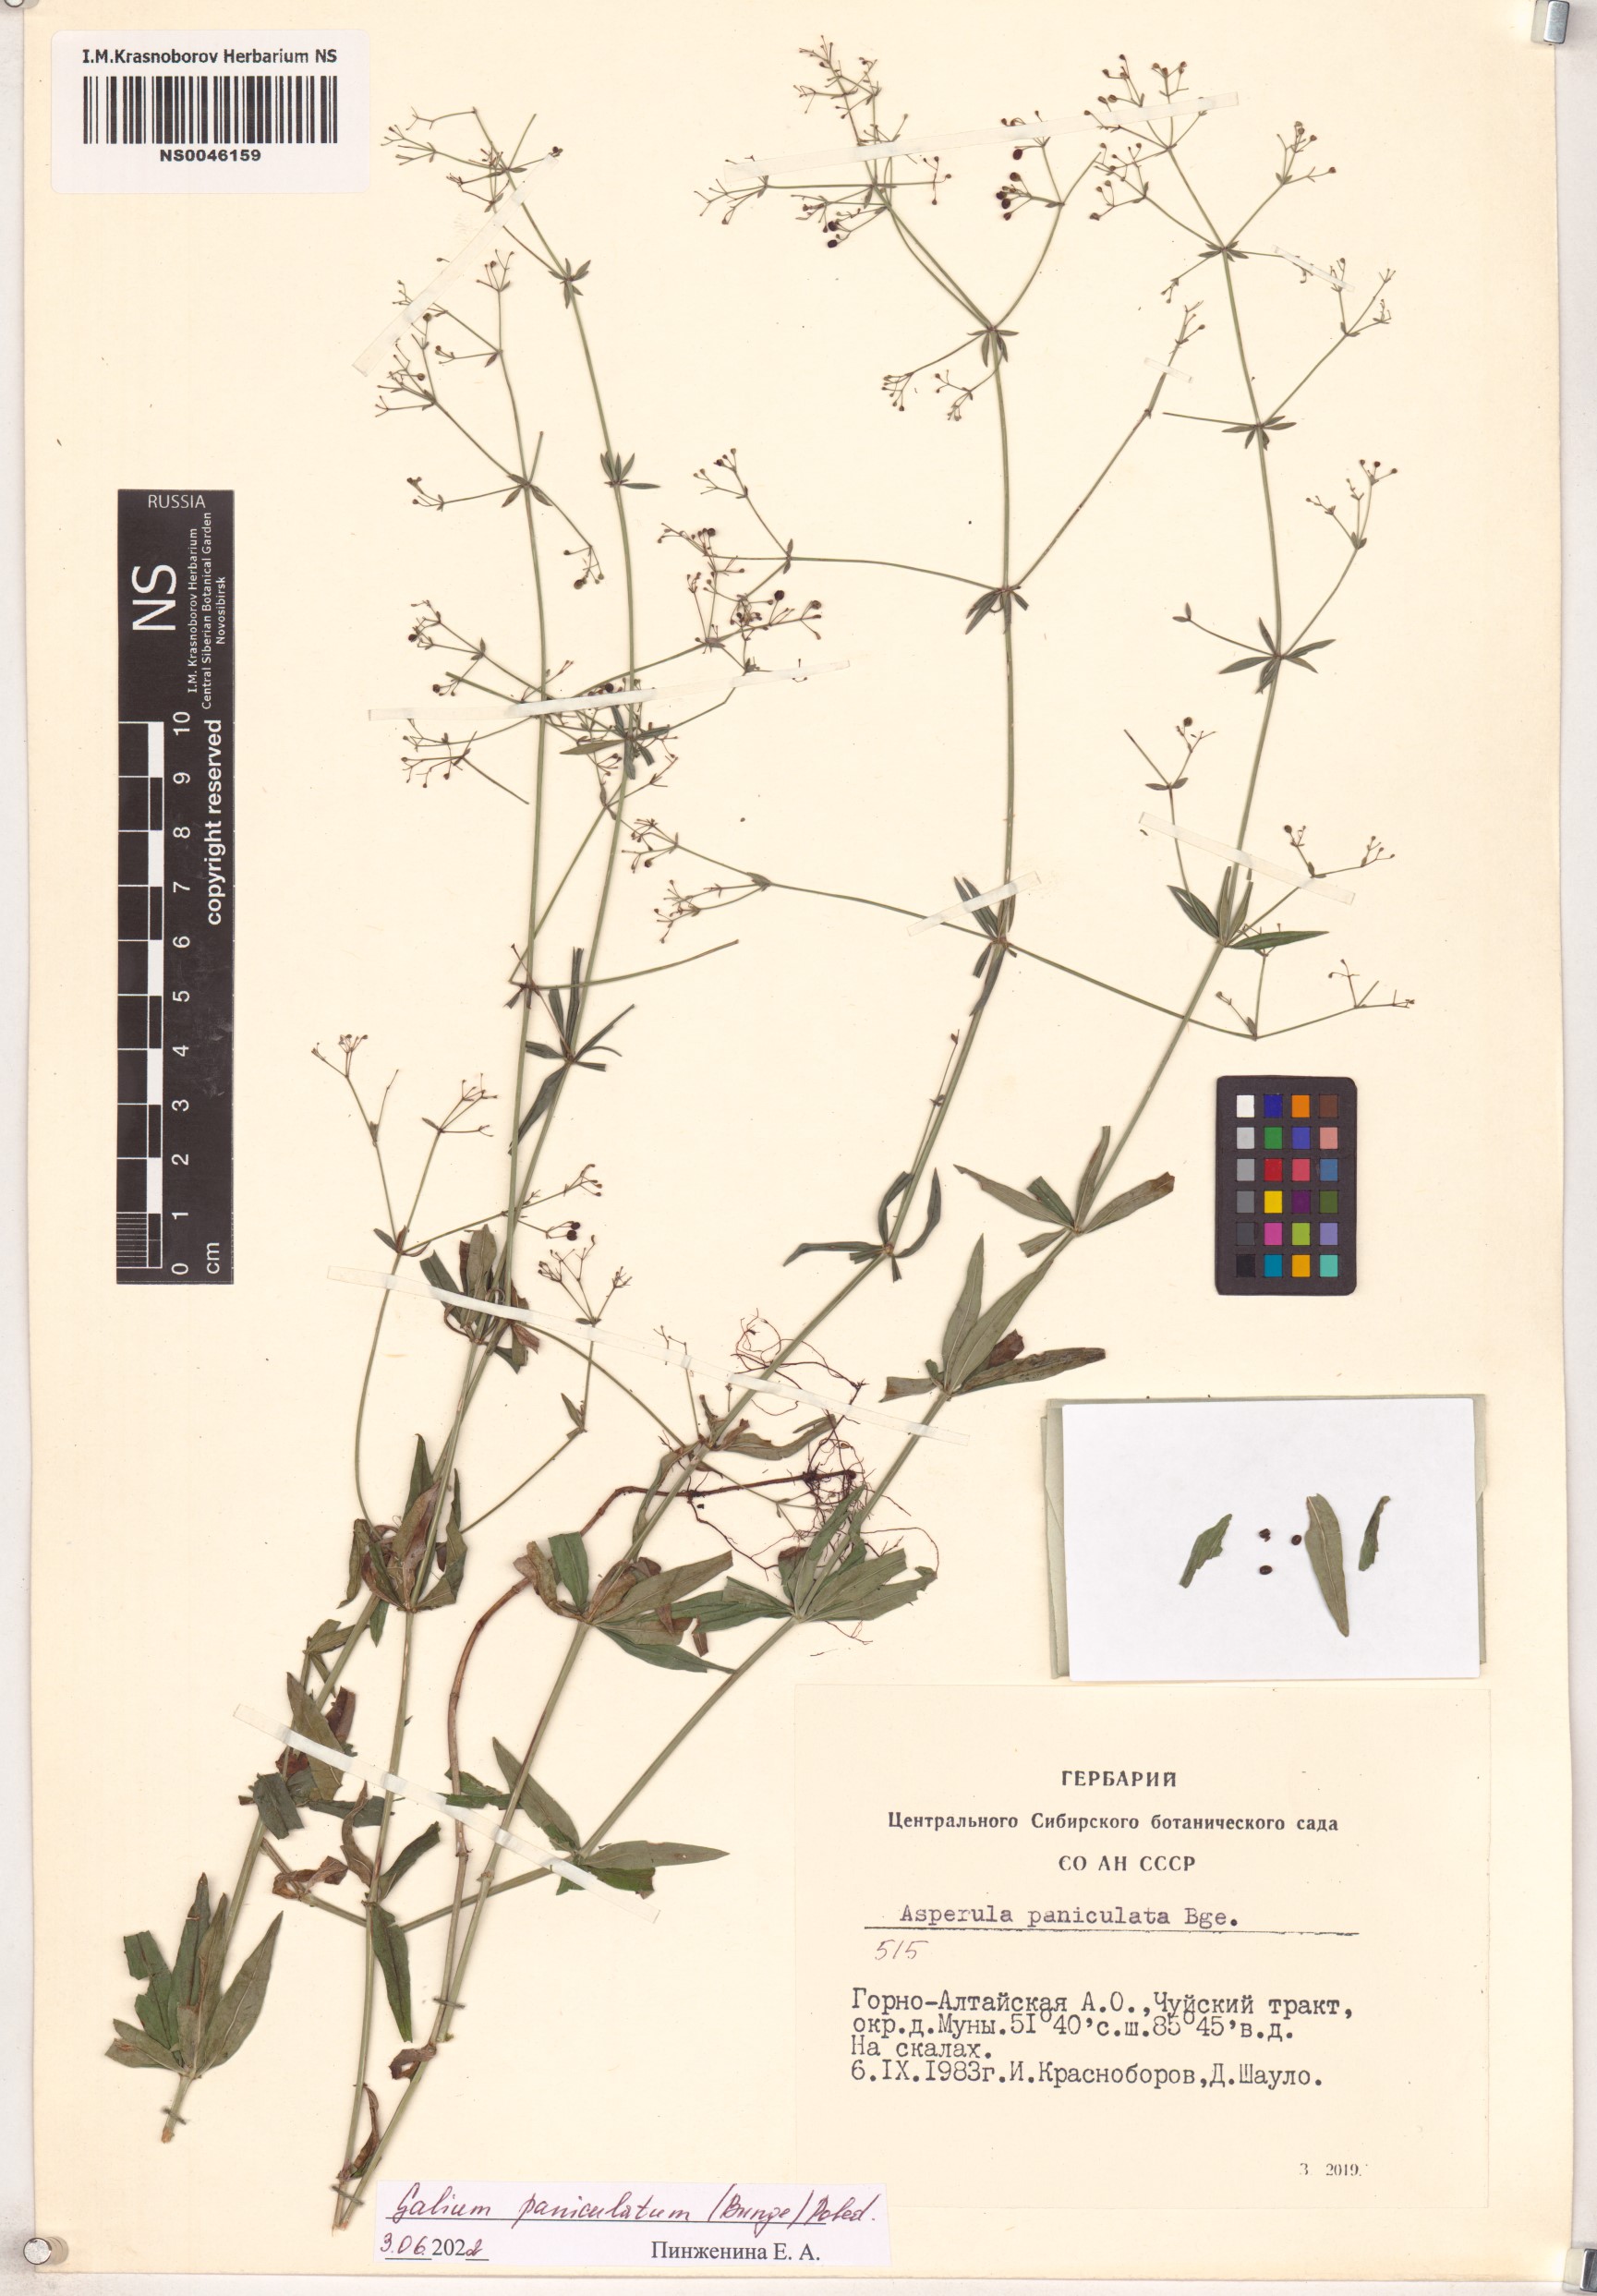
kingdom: Plantae
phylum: Tracheophyta
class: Magnoliopsida
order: Gentianales
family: Rubiaceae
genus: Galium
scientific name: Galium paniculatum
